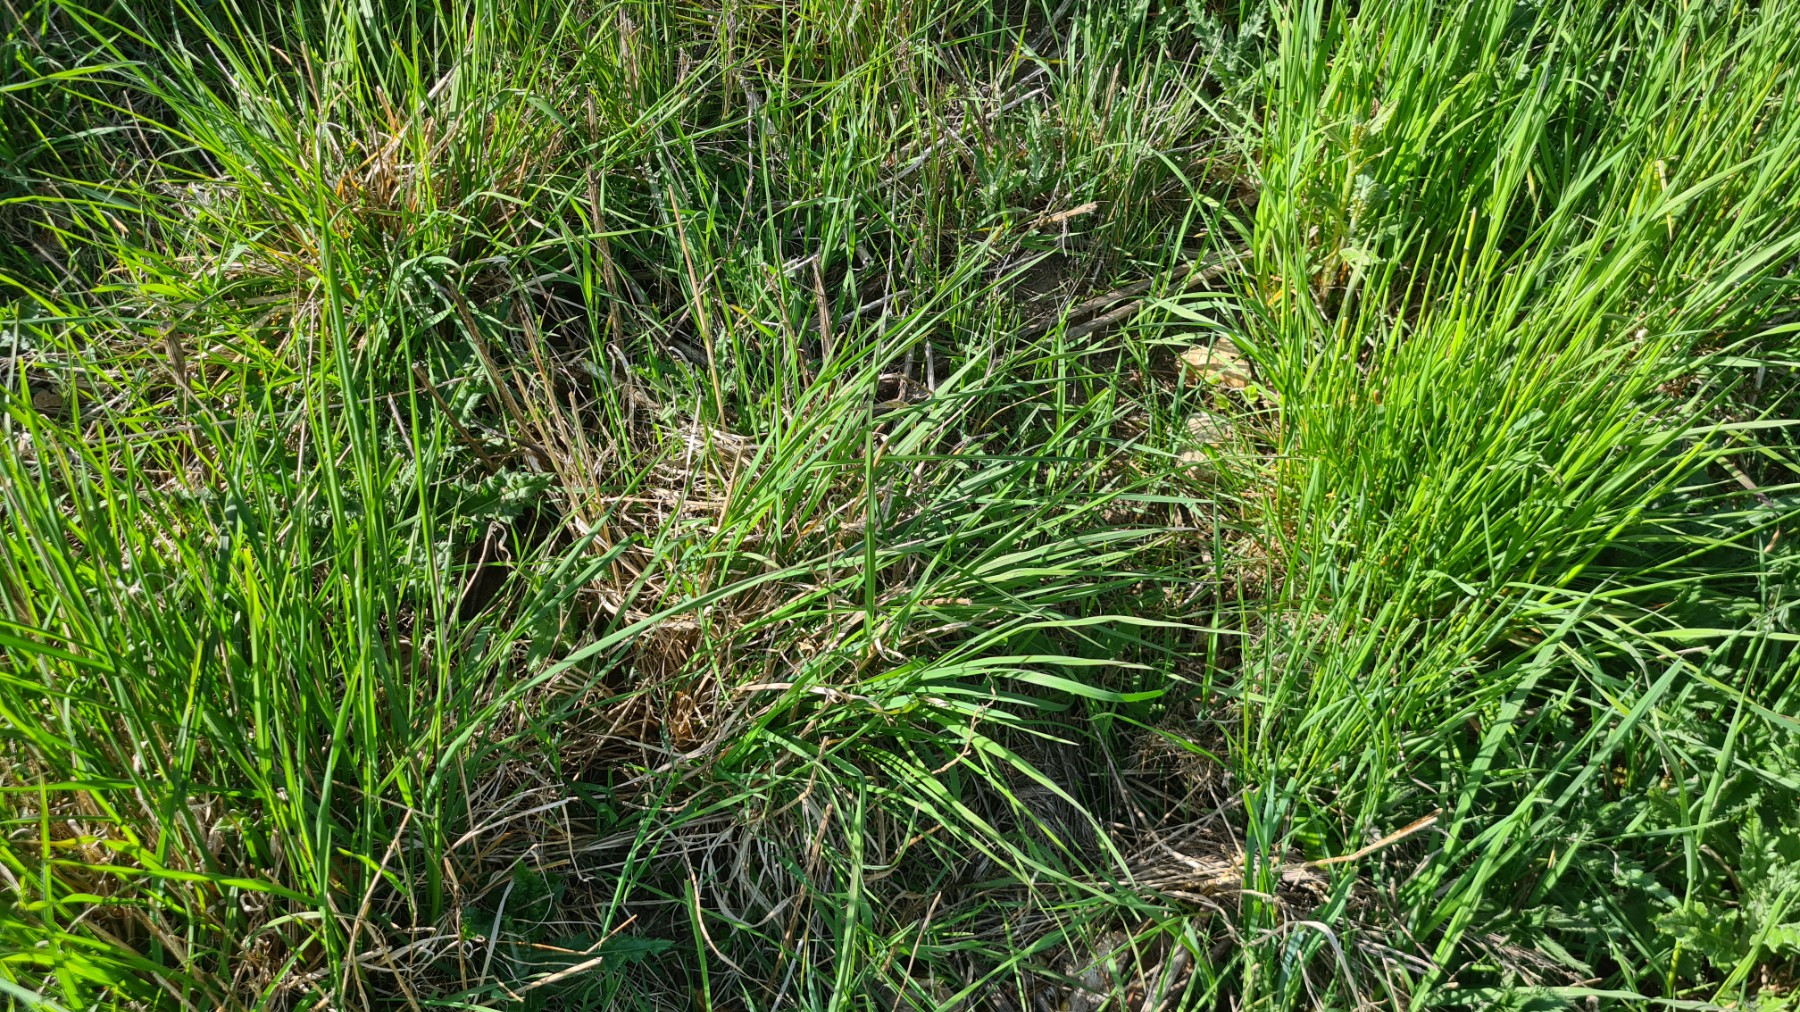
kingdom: Fungi
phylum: Ascomycota
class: Dothideomycetes
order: Acrospermales
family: Acrospermaceae
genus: Acrospermum
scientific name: Acrospermum graminum
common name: græs-stængeltunge
